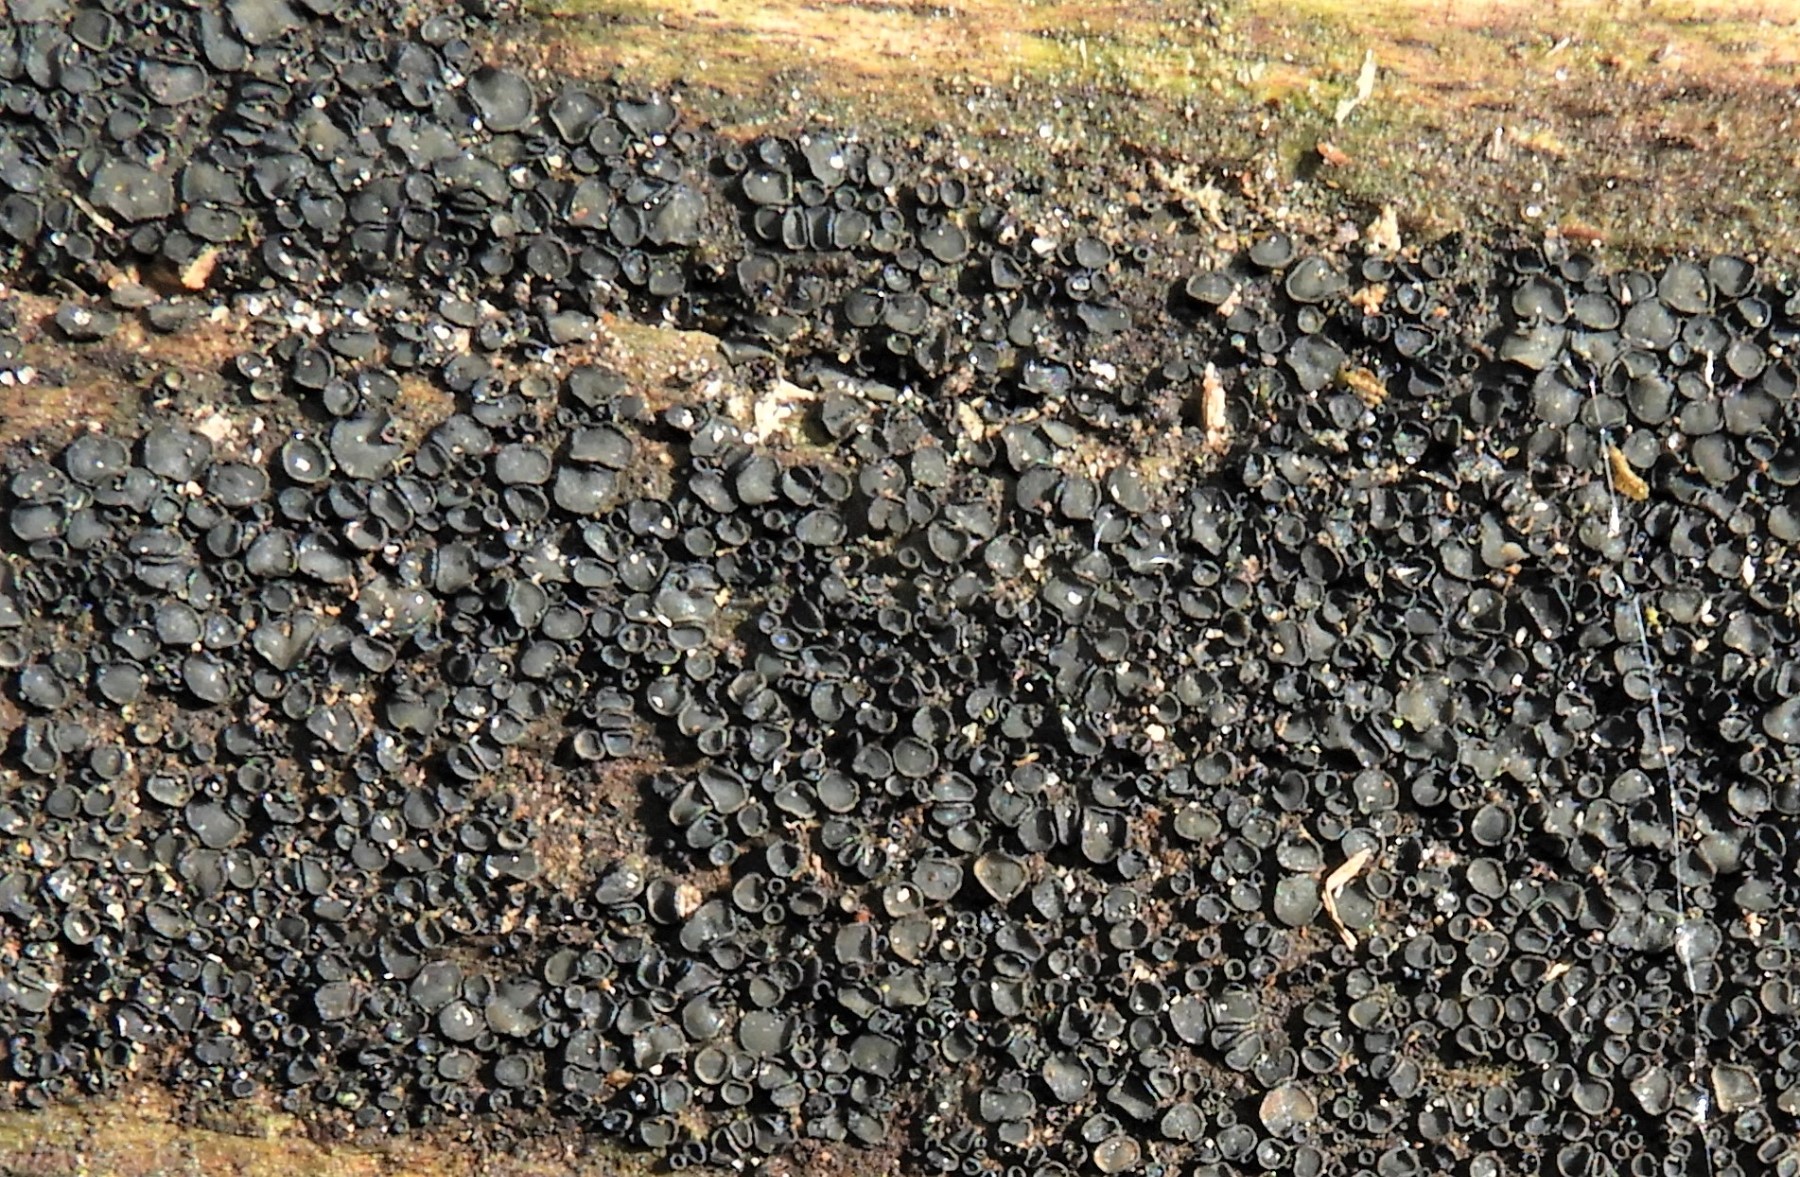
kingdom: Fungi
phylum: Ascomycota
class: Leotiomycetes
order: Helotiales
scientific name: Helotiales
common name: stilkskiveordenen
